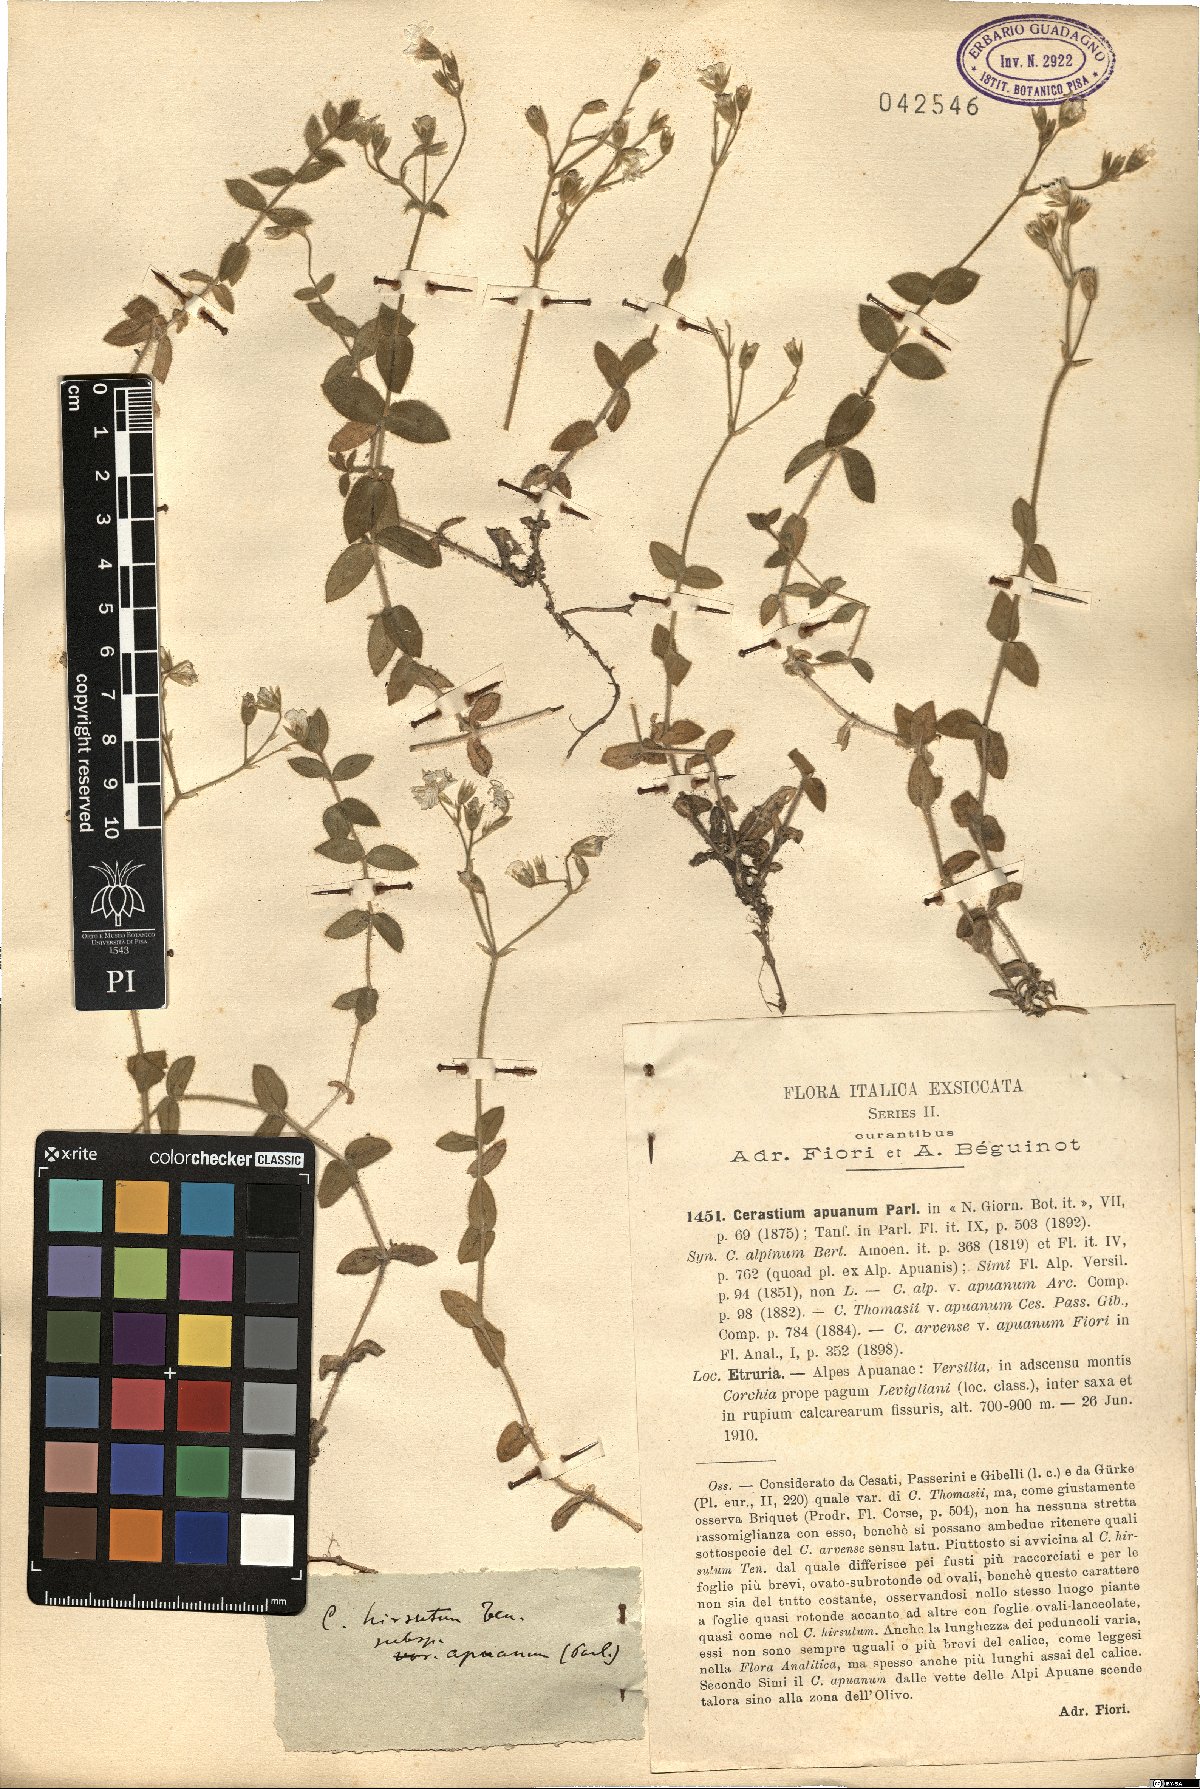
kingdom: Plantae
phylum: Tracheophyta
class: Magnoliopsida
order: Caryophyllales
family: Caryophyllaceae
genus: Cerastium
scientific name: Cerastium scaranii
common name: Italian mouse-ear
